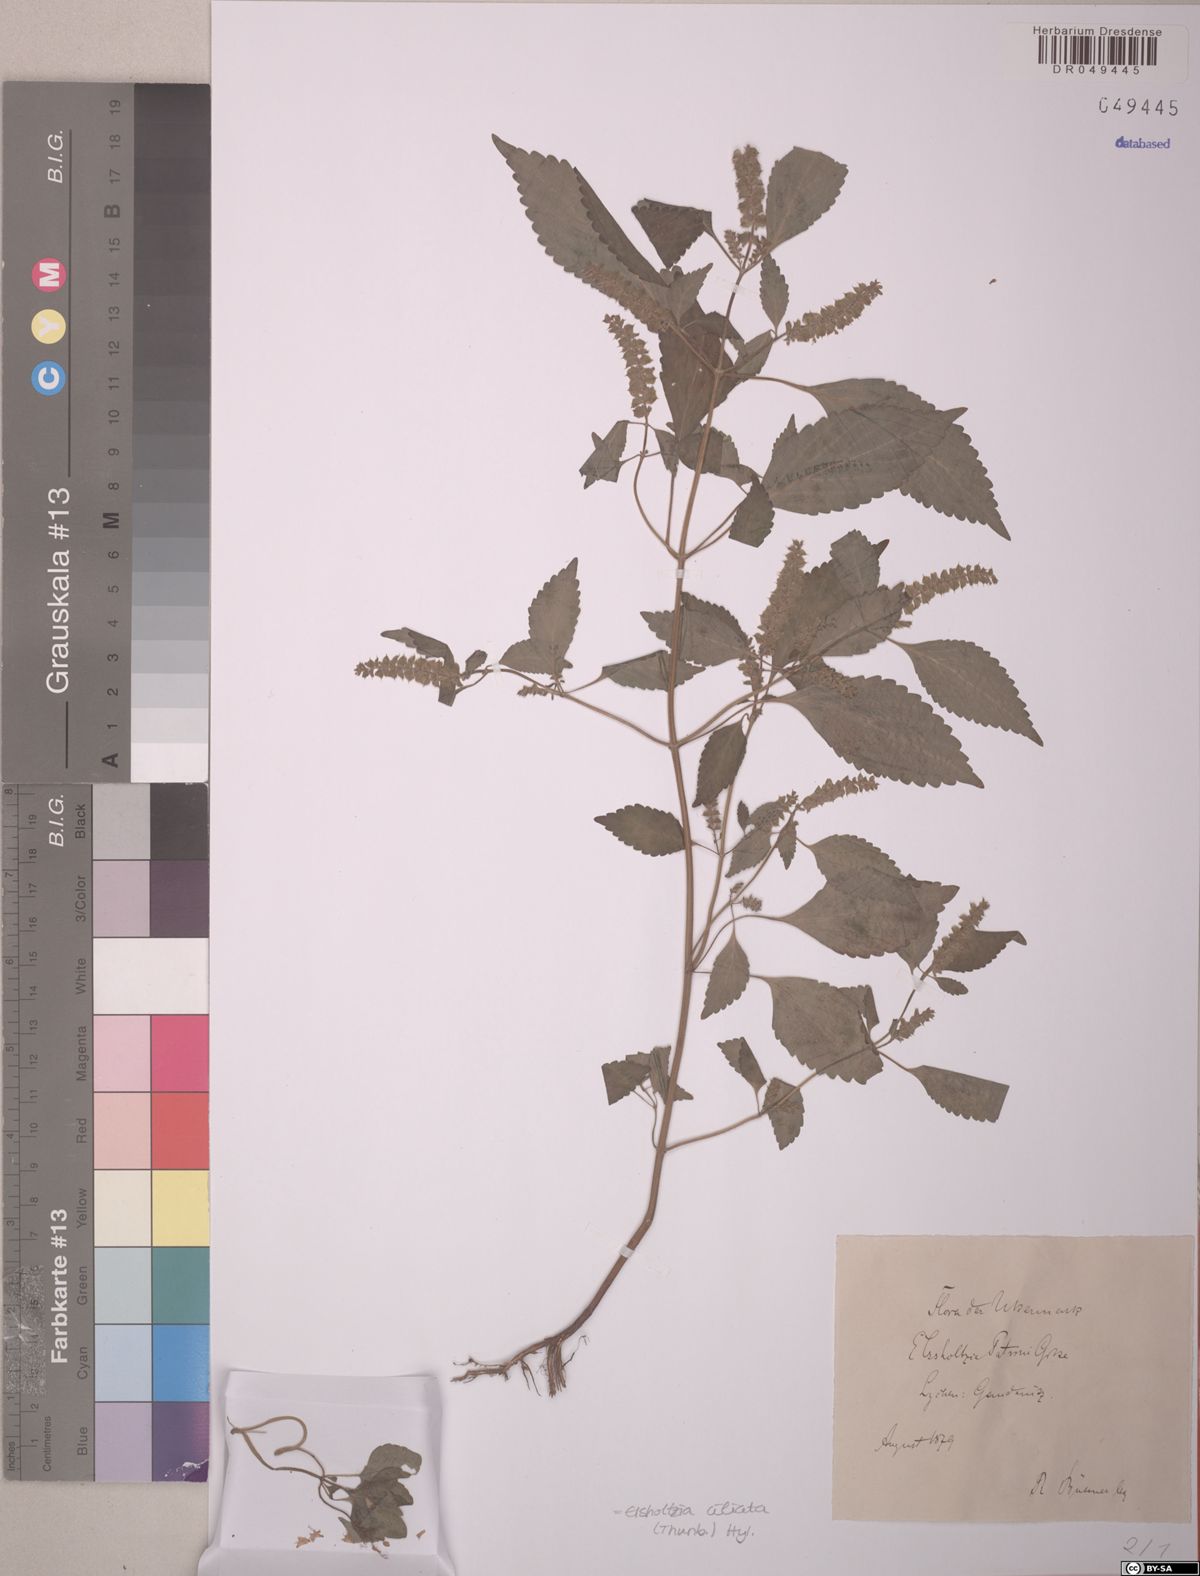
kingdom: Plantae
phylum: Tracheophyta
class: Magnoliopsida
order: Lamiales
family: Lamiaceae
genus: Elsholtzia
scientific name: Elsholtzia ciliata
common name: Ciliate elsholtzia
